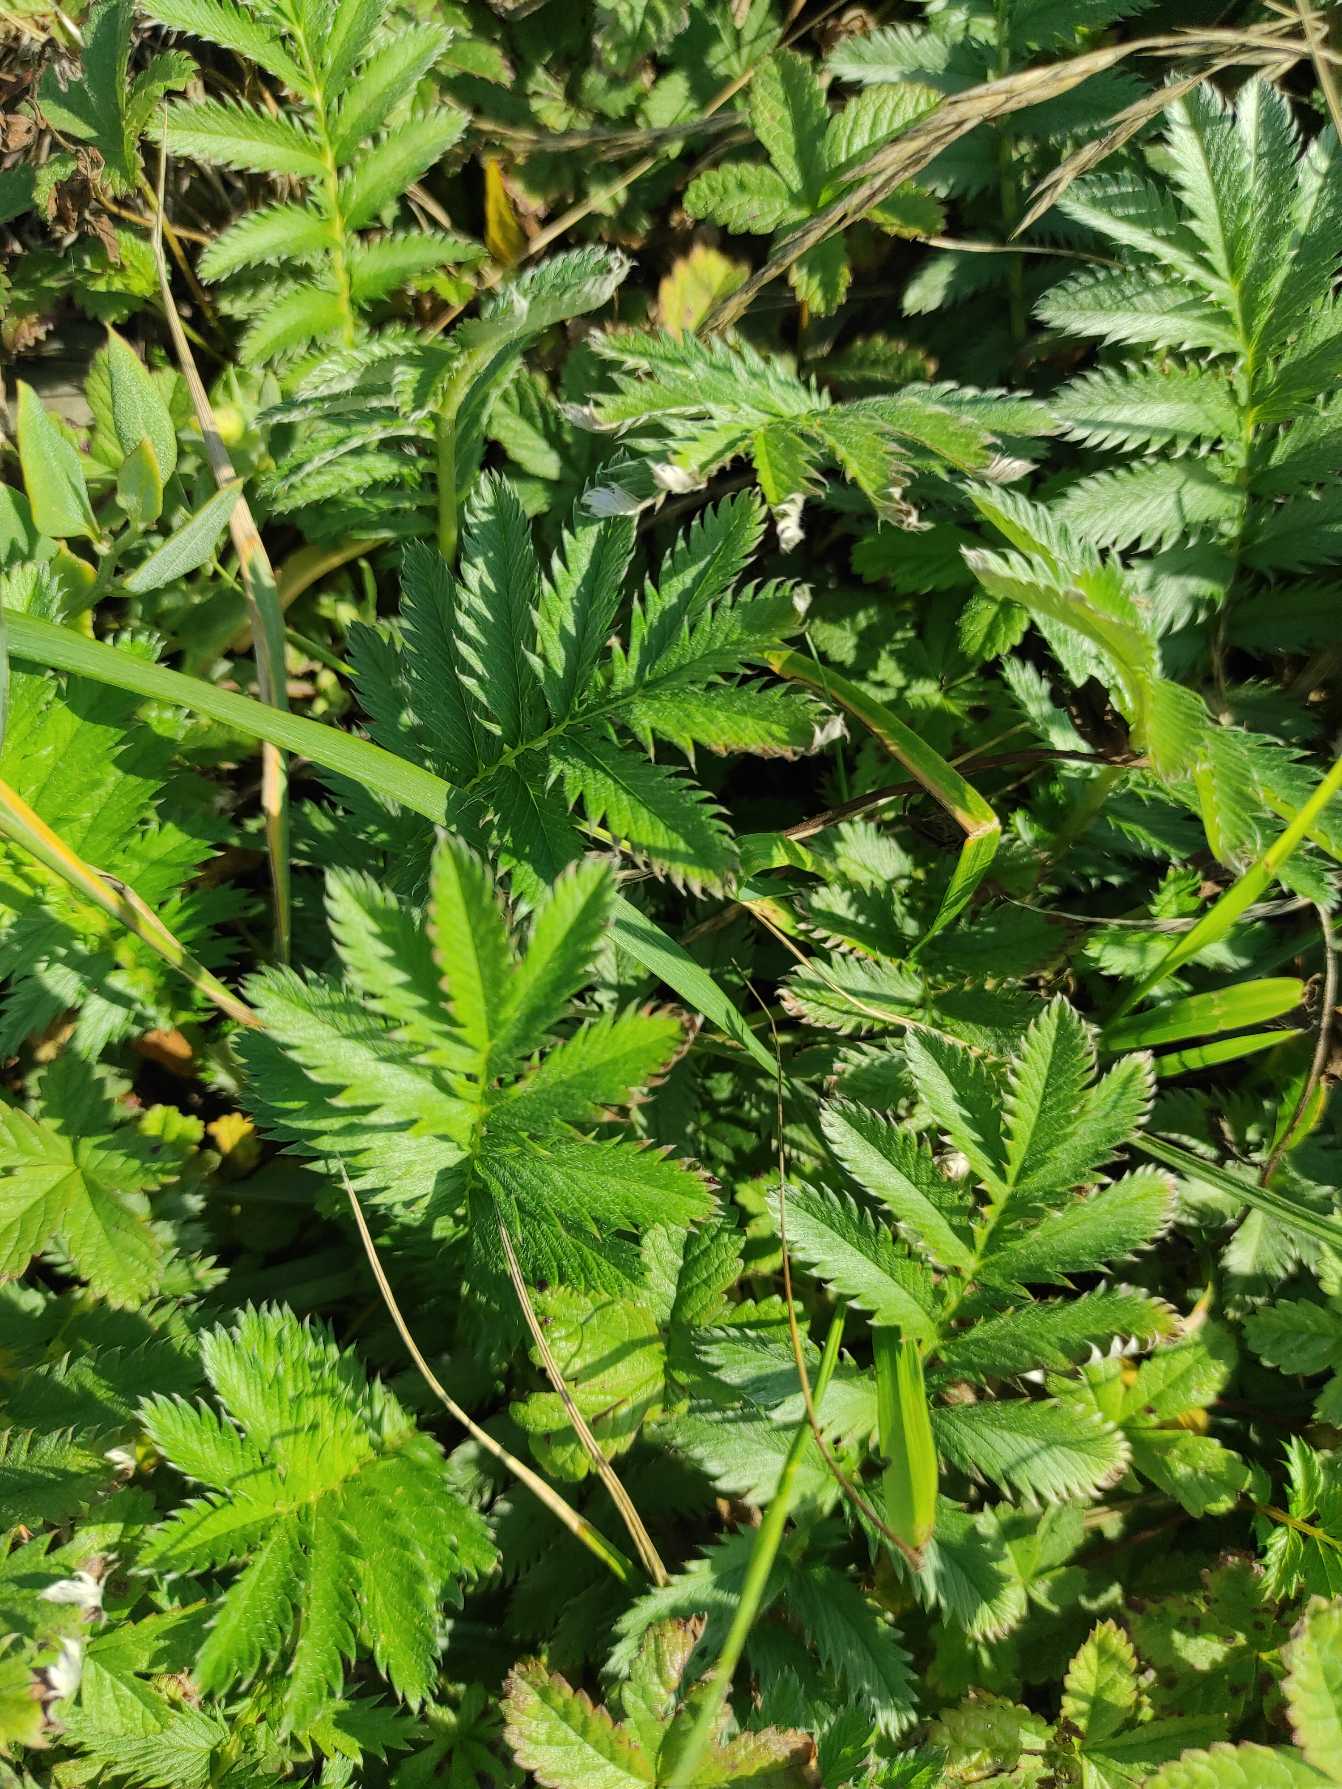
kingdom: Plantae
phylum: Tracheophyta
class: Magnoliopsida
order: Rosales
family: Rosaceae
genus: Argentina
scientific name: Argentina anserina
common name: Gåsepotentil
